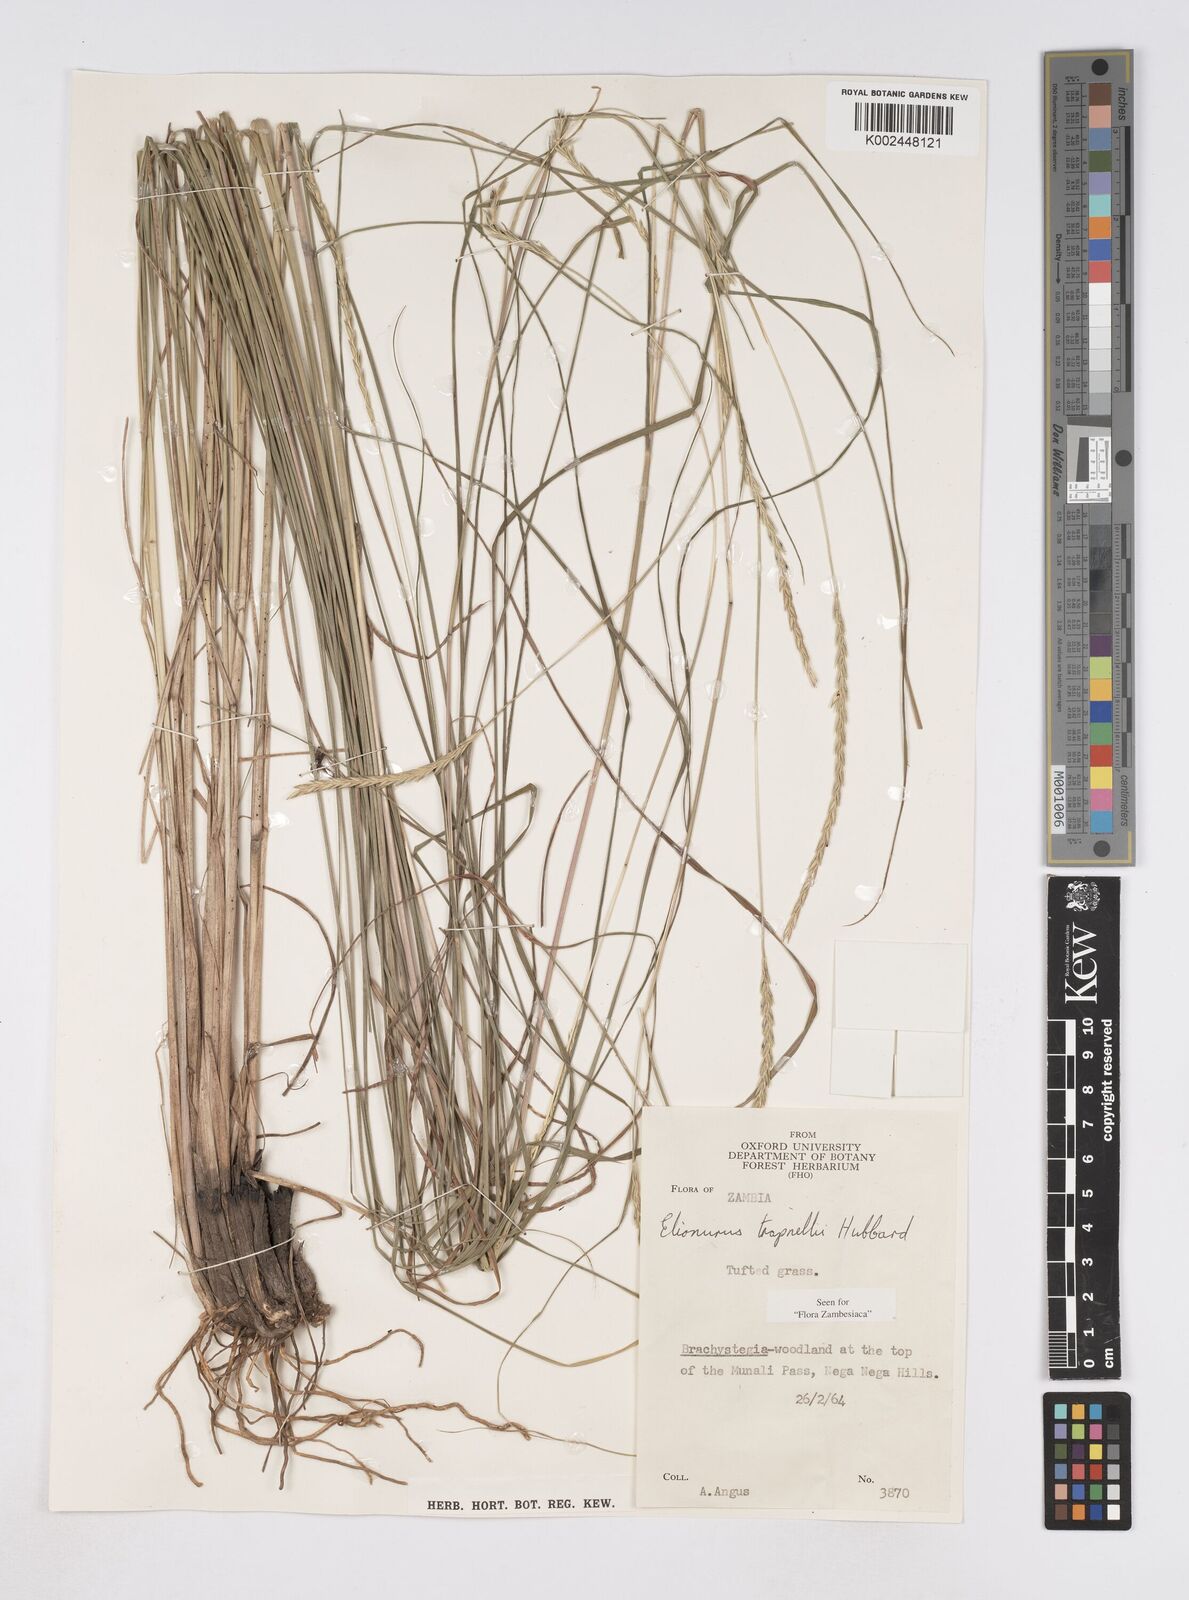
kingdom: Plantae
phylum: Tracheophyta
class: Liliopsida
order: Poales
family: Poaceae
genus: Elionurus
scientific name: Elionurus tripsacoides
